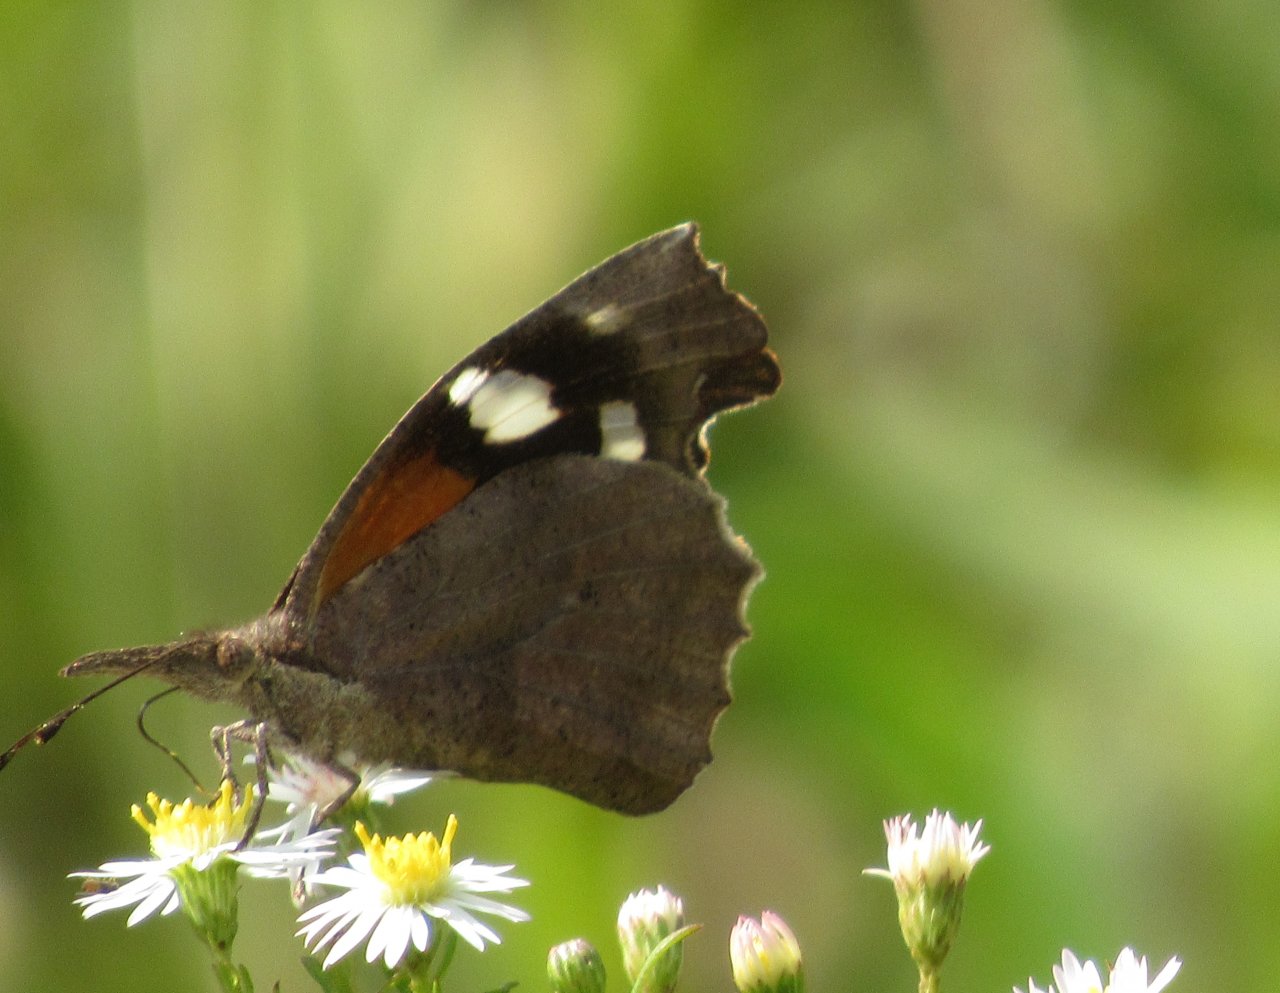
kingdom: Animalia
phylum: Arthropoda
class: Insecta
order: Lepidoptera
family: Nymphalidae
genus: Libytheana
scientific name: Libytheana carinenta
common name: American Snout
